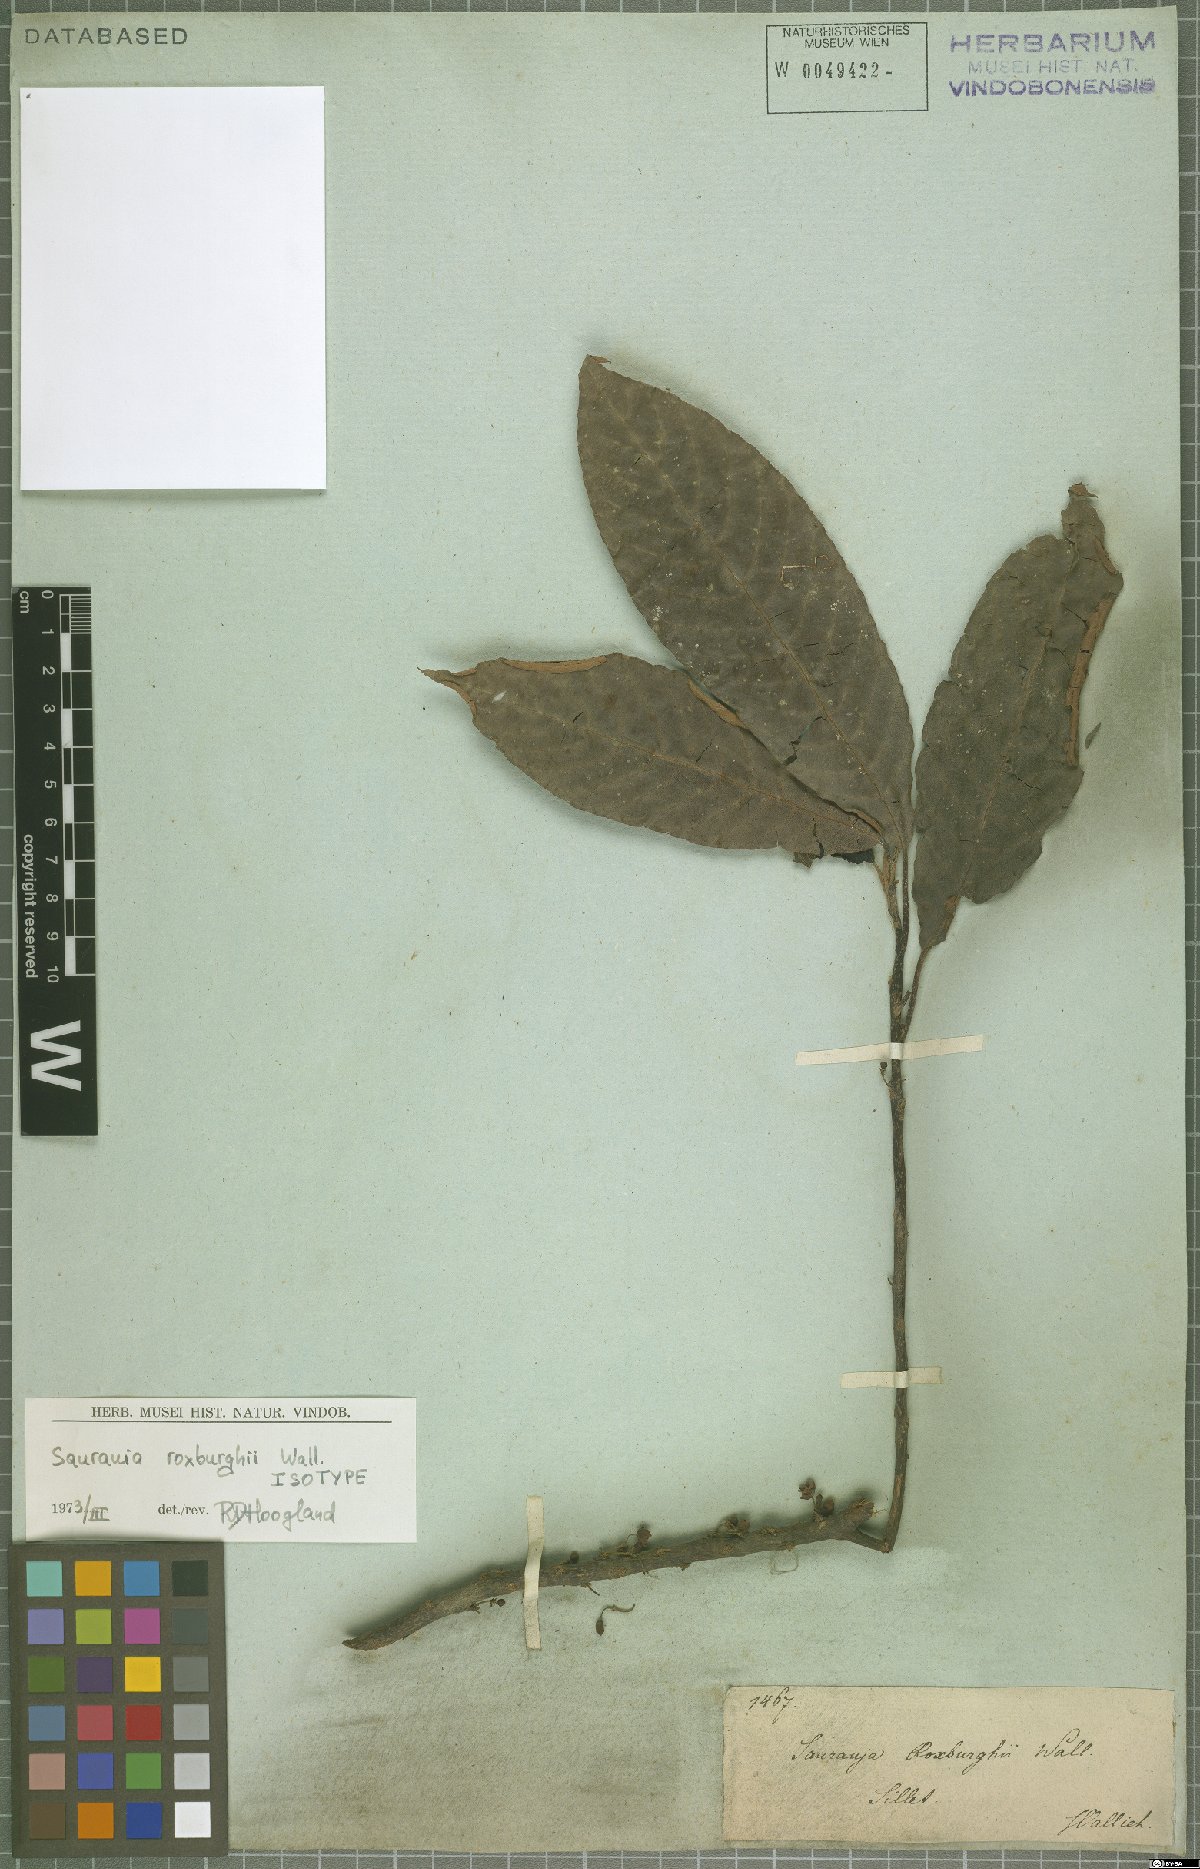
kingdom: Plantae
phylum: Tracheophyta
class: Magnoliopsida
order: Ericales
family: Actinidiaceae
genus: Saurauia
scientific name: Saurauia roxburghii
